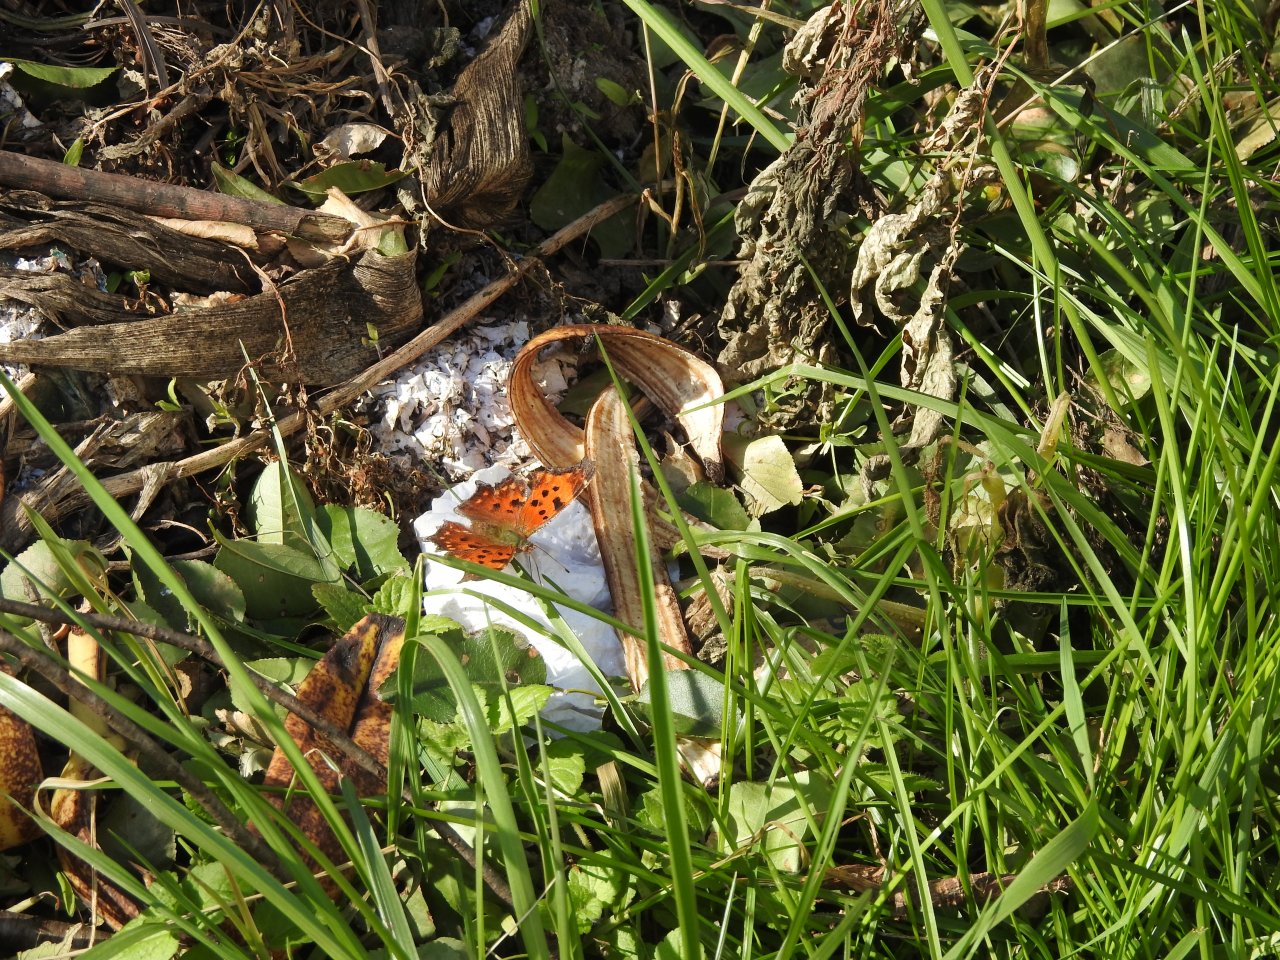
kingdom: Animalia
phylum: Arthropoda
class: Insecta
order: Lepidoptera
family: Nymphalidae
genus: Polygonia
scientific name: Polygonia comma
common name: Eastern Comma
